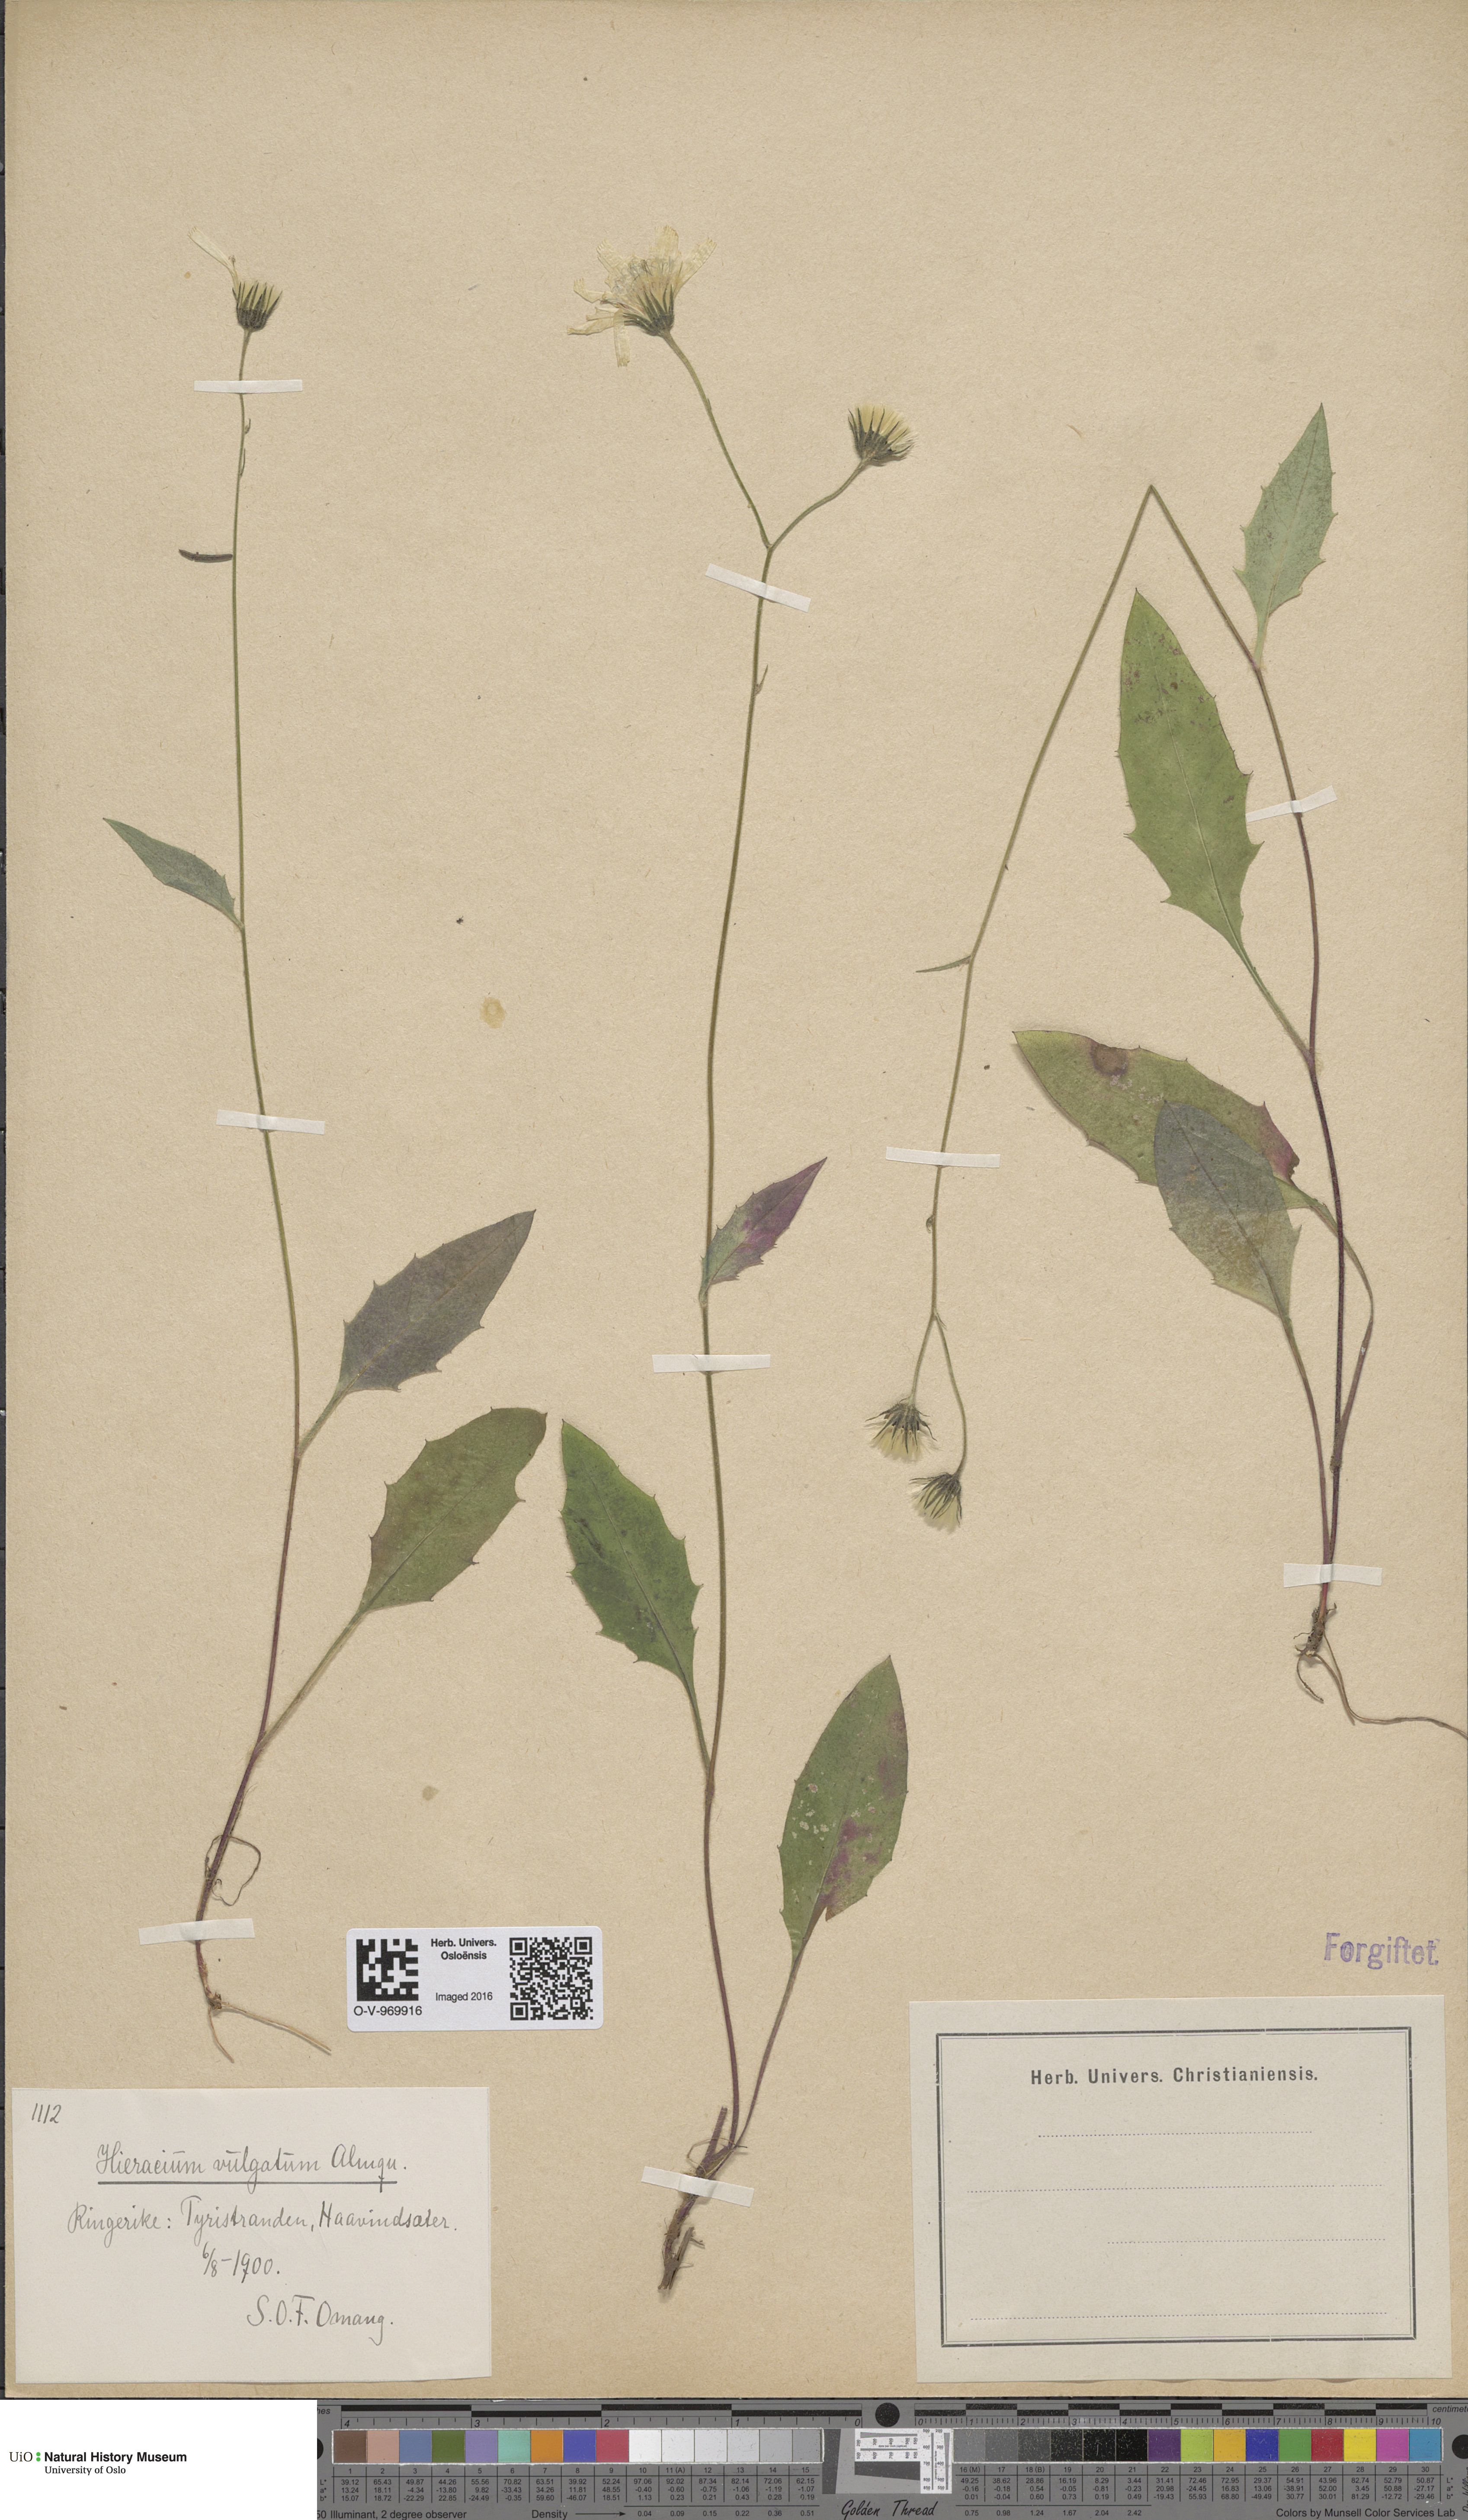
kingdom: Plantae
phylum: Tracheophyta
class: Magnoliopsida
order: Asterales
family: Asteraceae
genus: Hieracium
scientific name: Hieracium vulgatum
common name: Common hawkweed
